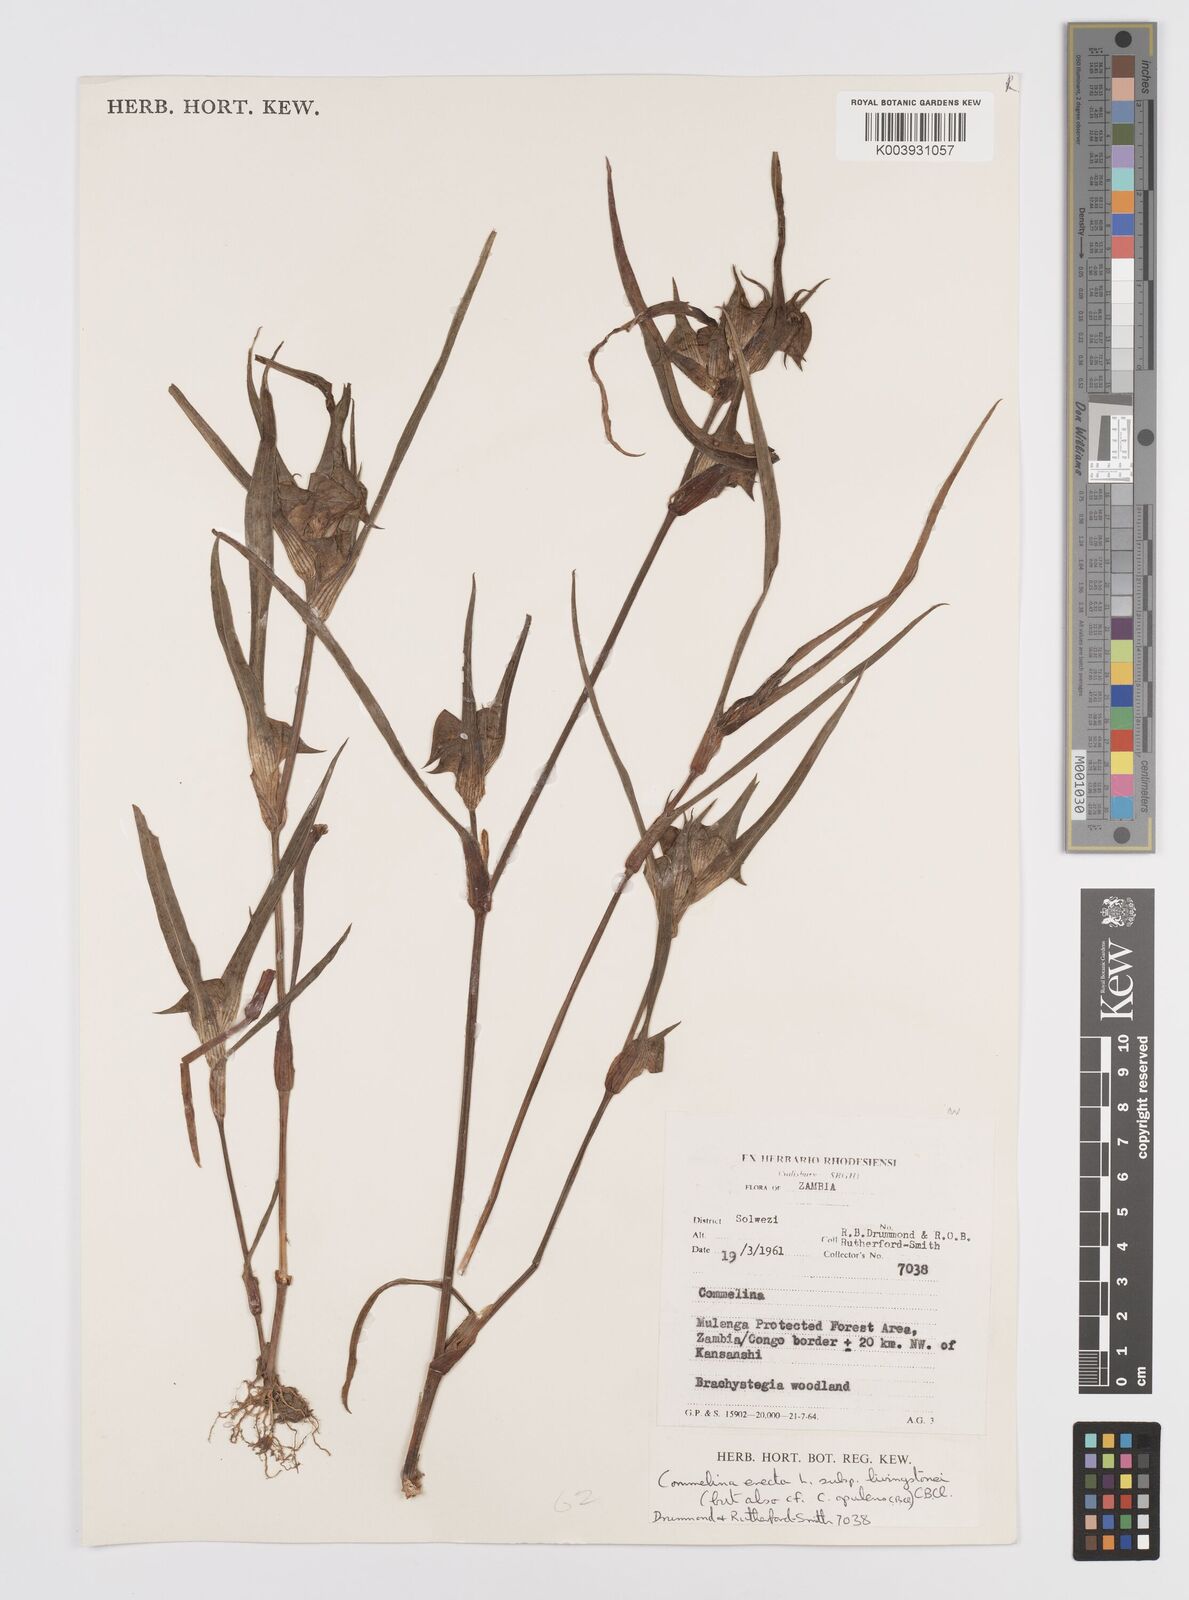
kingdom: Plantae
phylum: Tracheophyta
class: Liliopsida
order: Commelinales
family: Commelinaceae
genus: Commelina
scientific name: Commelina aspera
